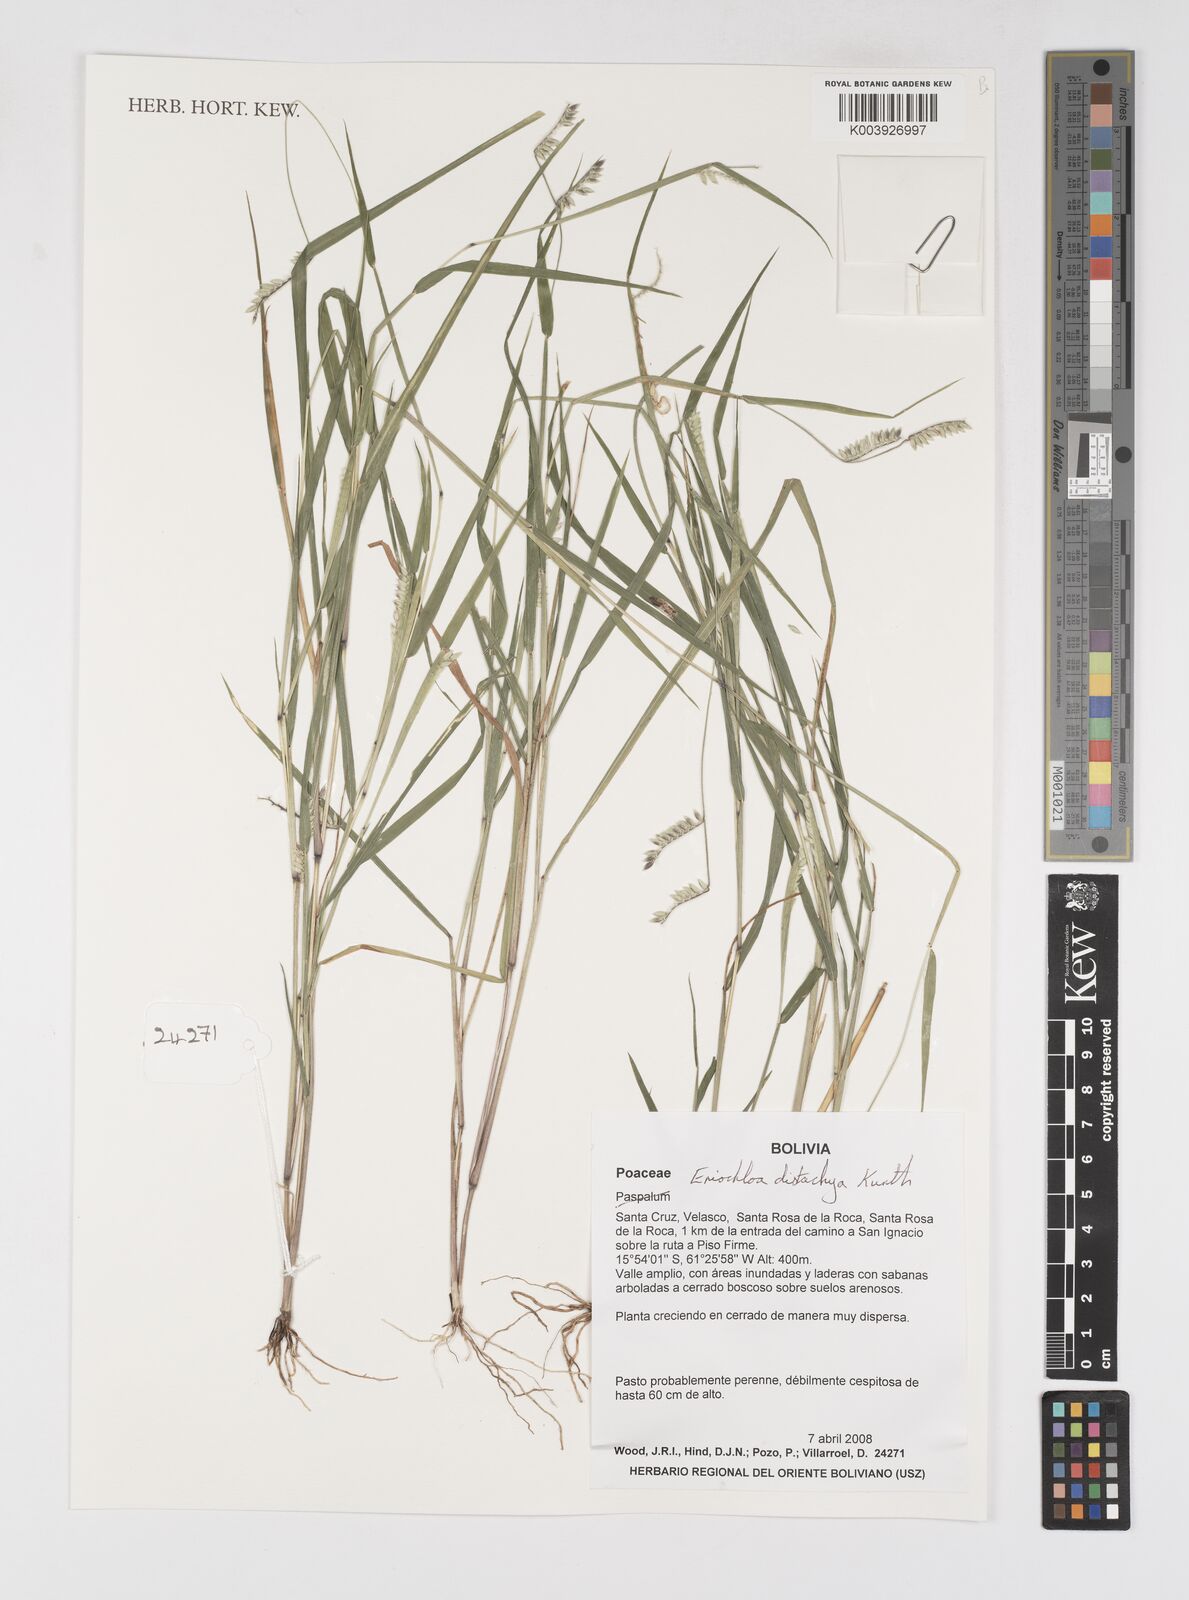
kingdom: Plantae
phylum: Tracheophyta
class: Liliopsida
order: Poales
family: Poaceae
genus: Eriochloa
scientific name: Eriochloa distachya
